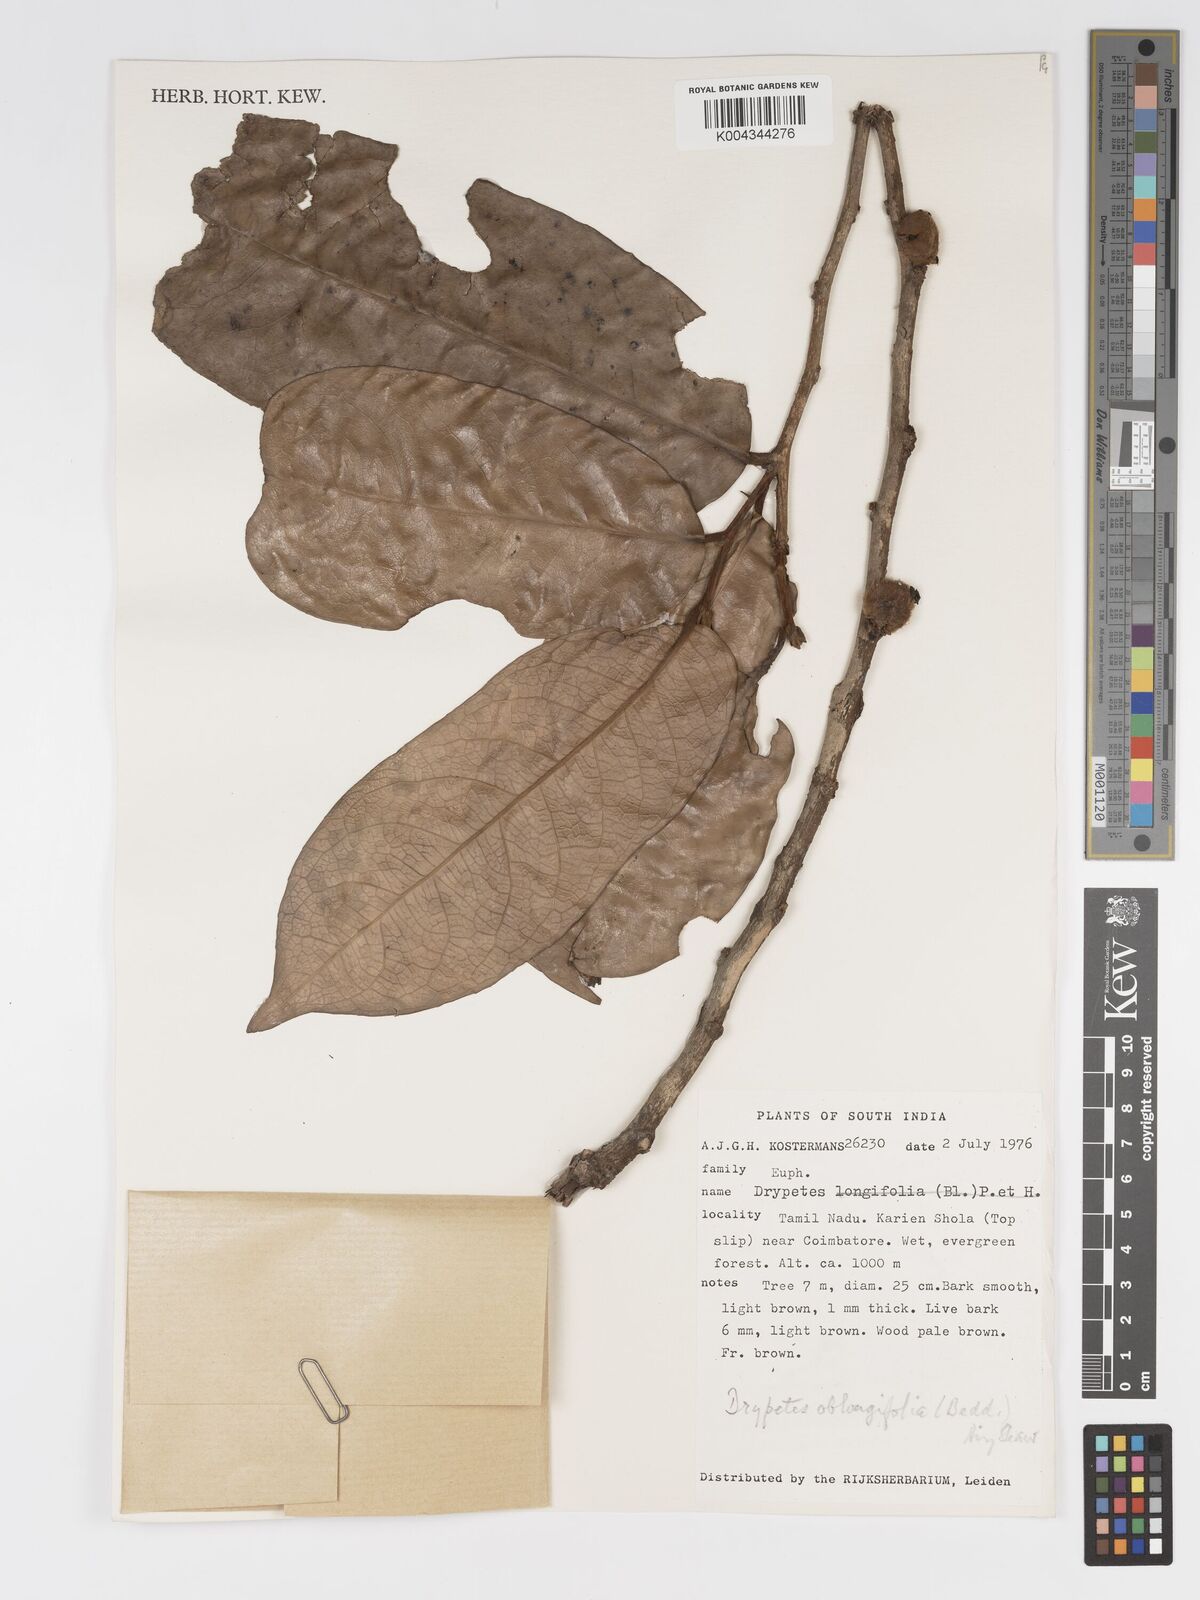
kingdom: Plantae
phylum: Tracheophyta
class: Magnoliopsida
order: Malpighiales
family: Putranjivaceae
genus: Drypetes
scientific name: Drypetes oblongifolia
